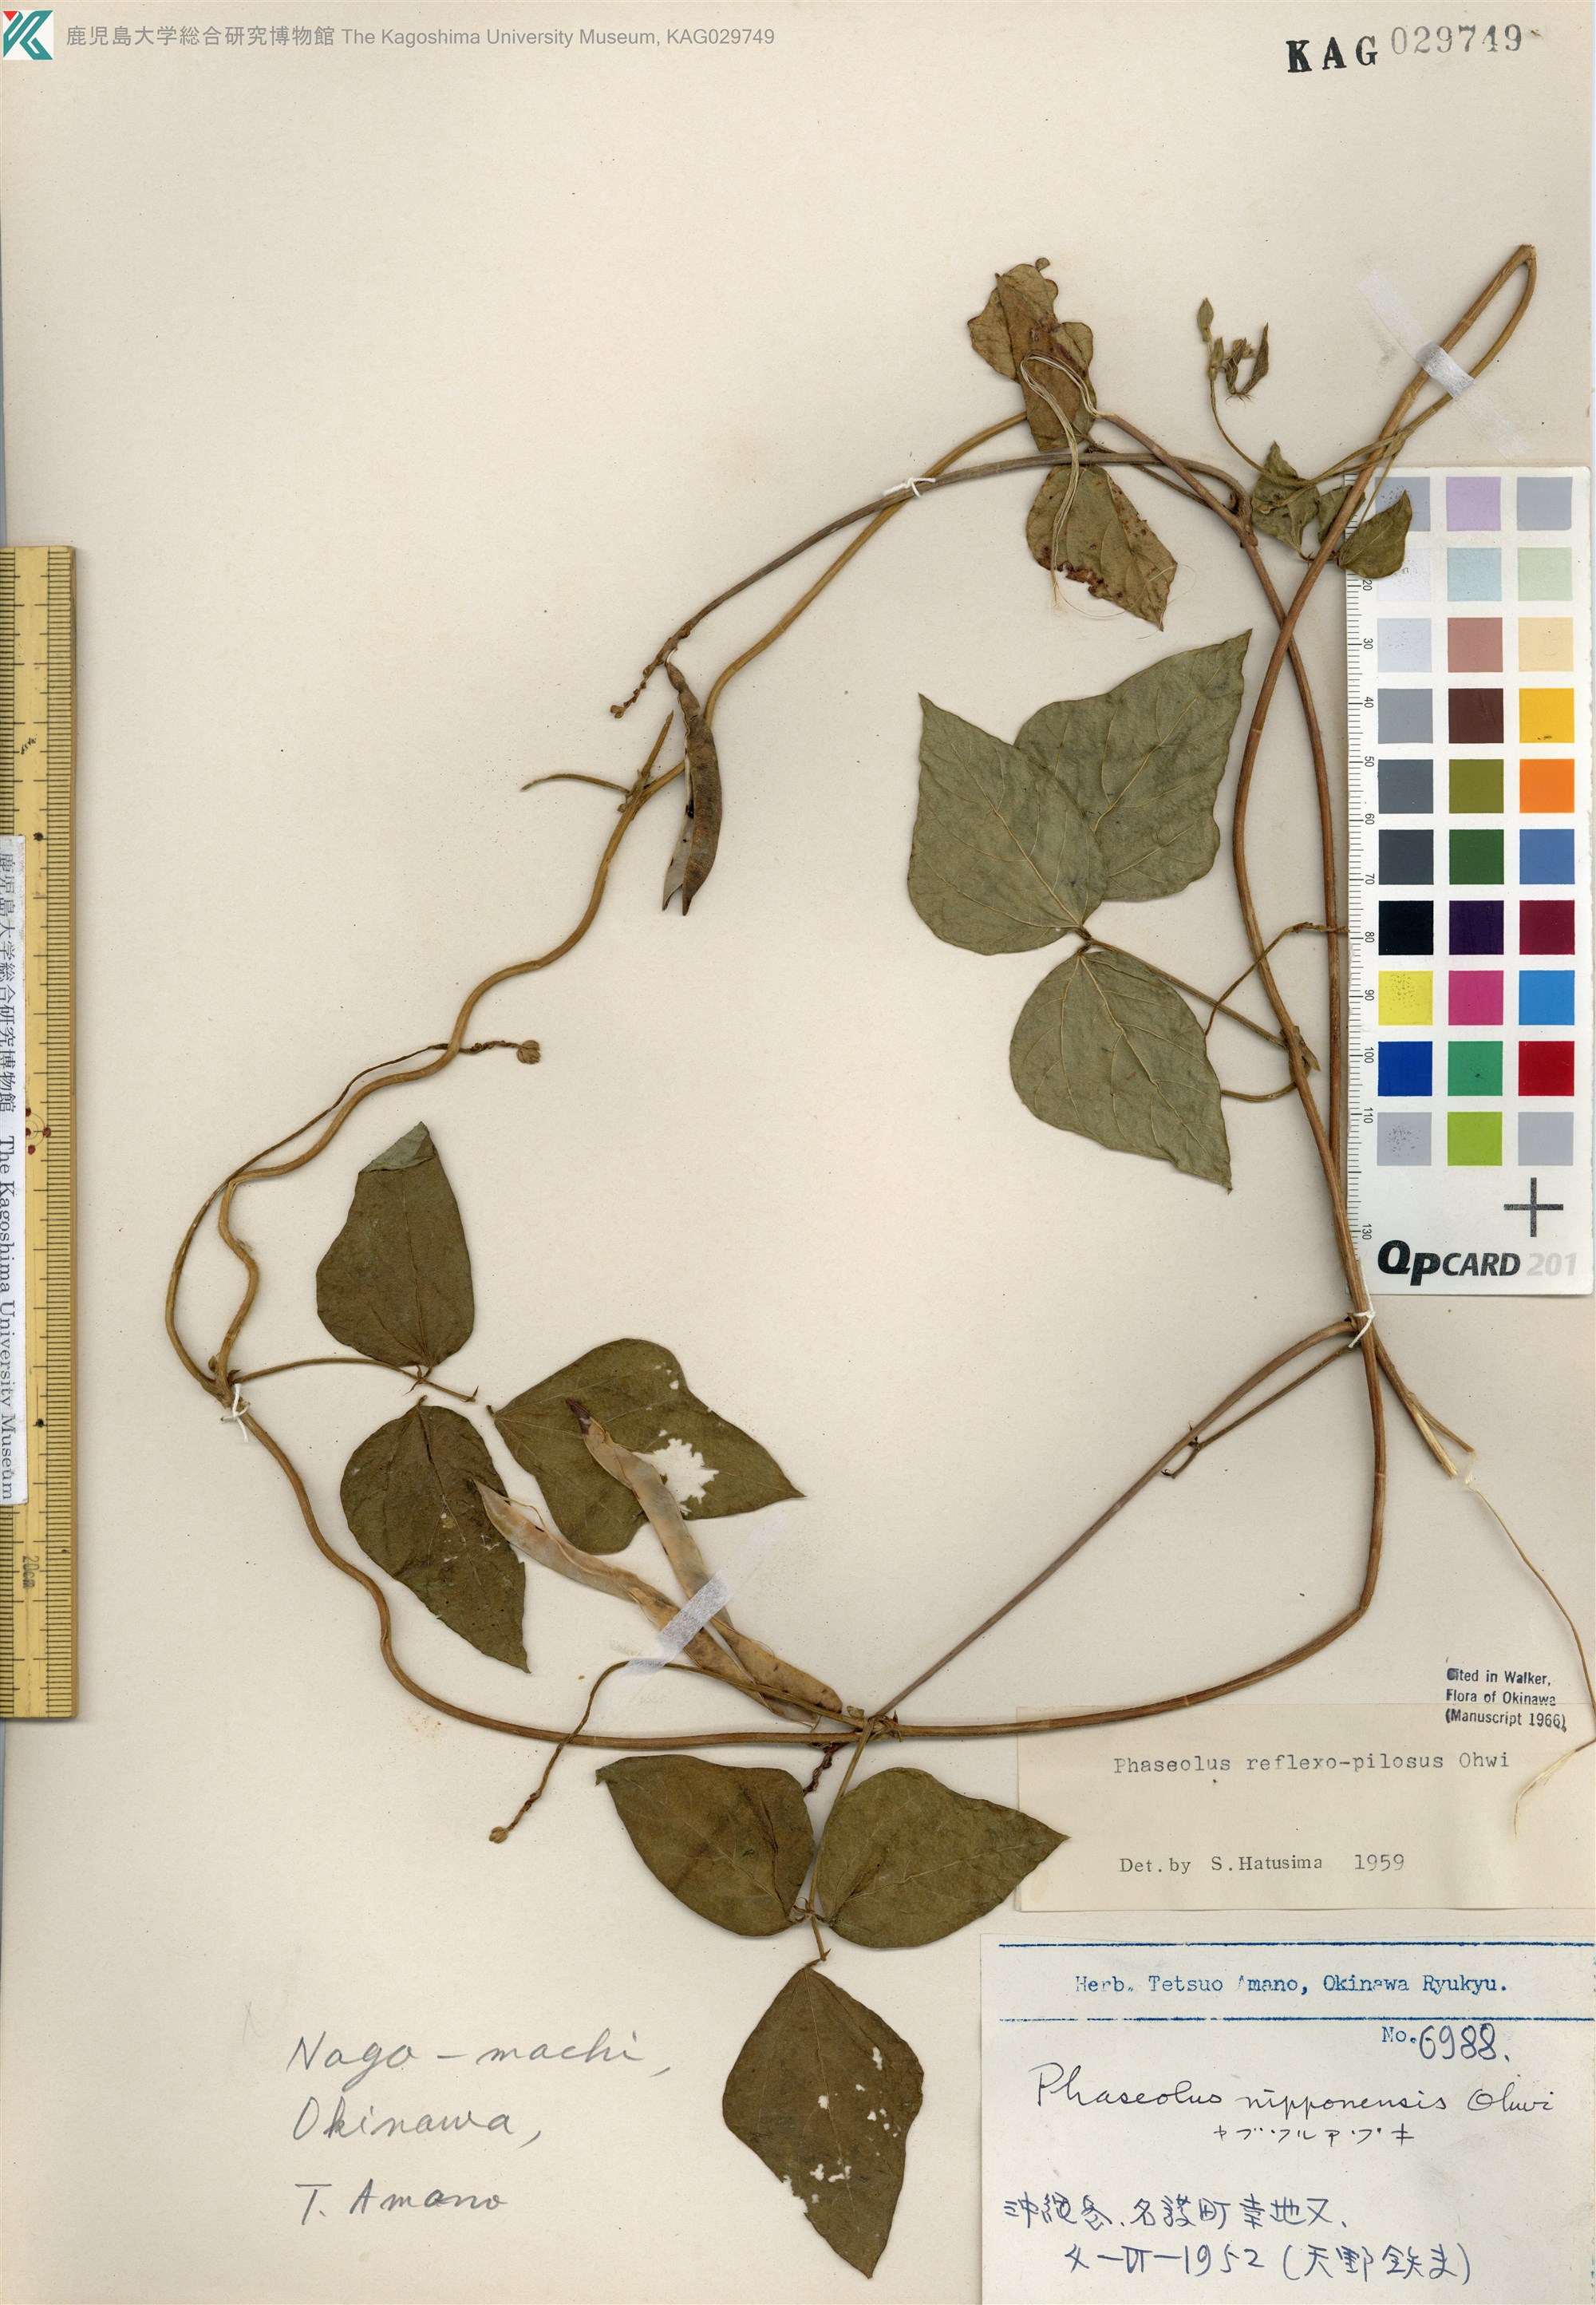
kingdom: Plantae
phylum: Tracheophyta
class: Magnoliopsida
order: Fabales
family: Fabaceae
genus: Vigna
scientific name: Vigna reflexopilosa
